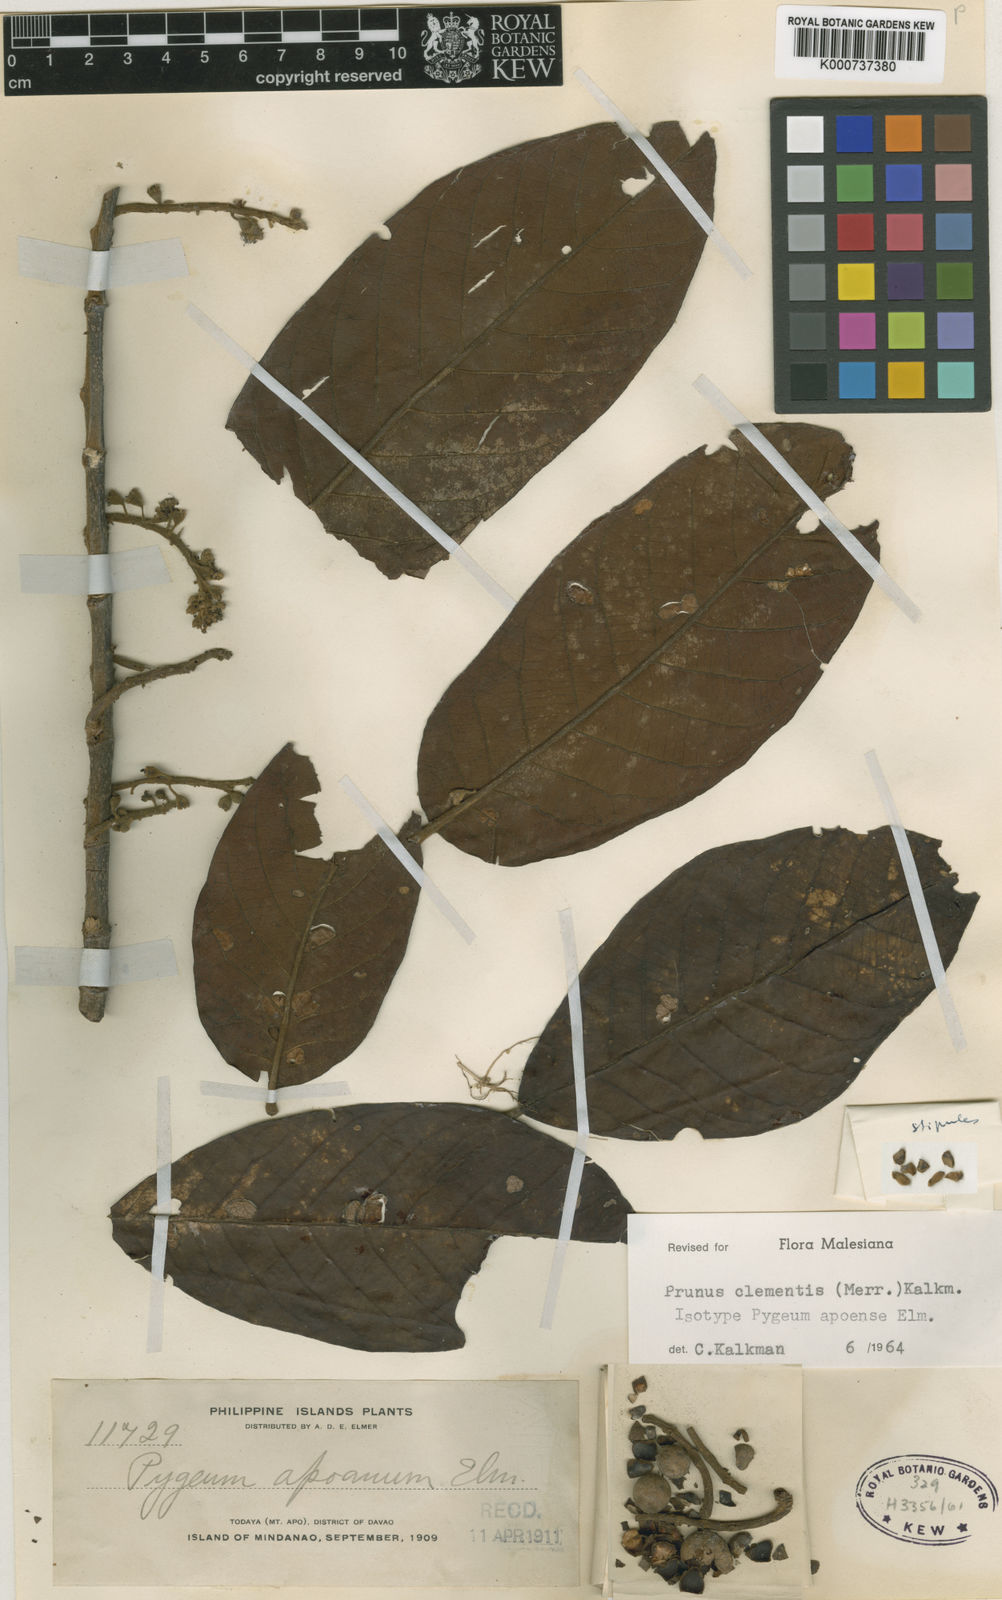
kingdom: Plantae
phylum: Tracheophyta
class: Magnoliopsida
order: Rosales
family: Rosaceae
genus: Prunus
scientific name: Prunus clementis
